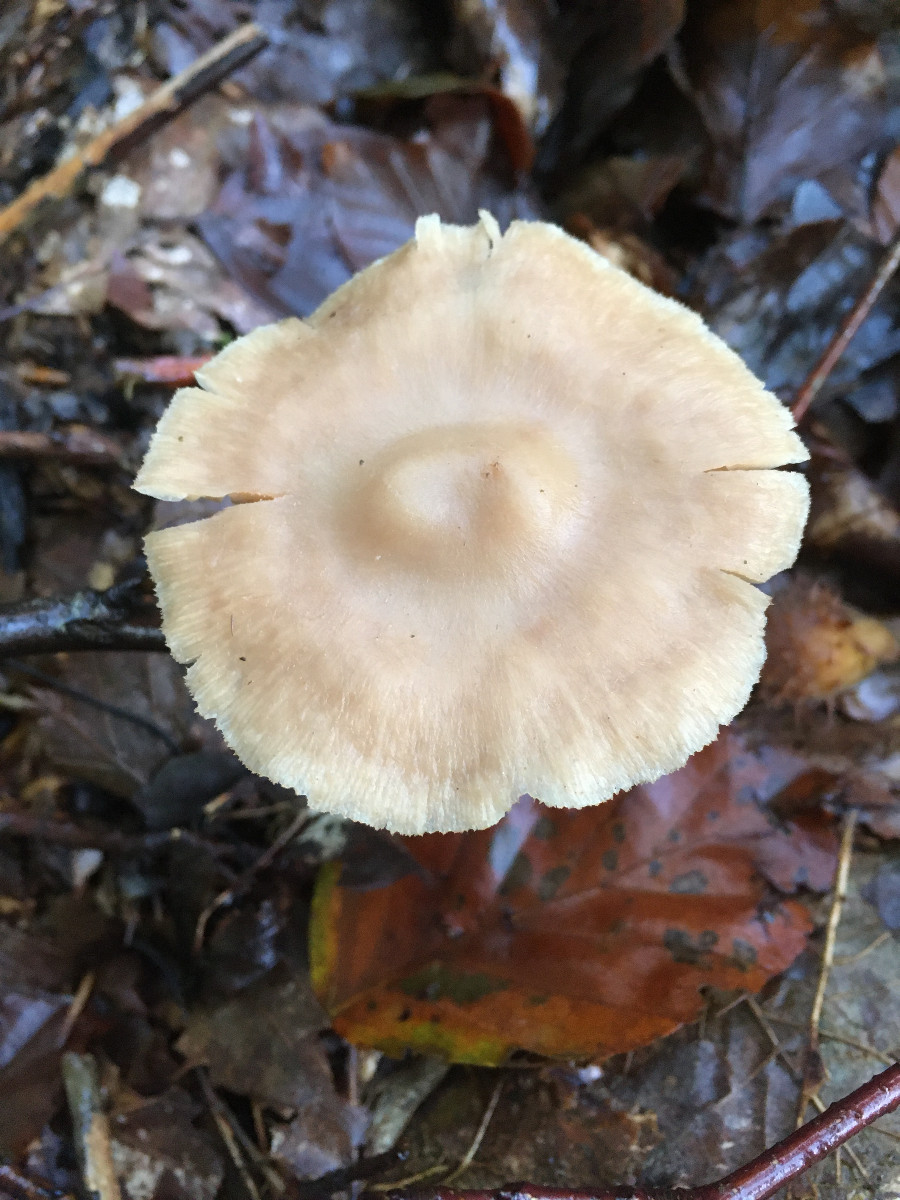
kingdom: Fungi
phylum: Basidiomycota
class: Agaricomycetes
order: Agaricales
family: Omphalotaceae
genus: Collybiopsis
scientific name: Collybiopsis confluens
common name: knippe-fladhat
